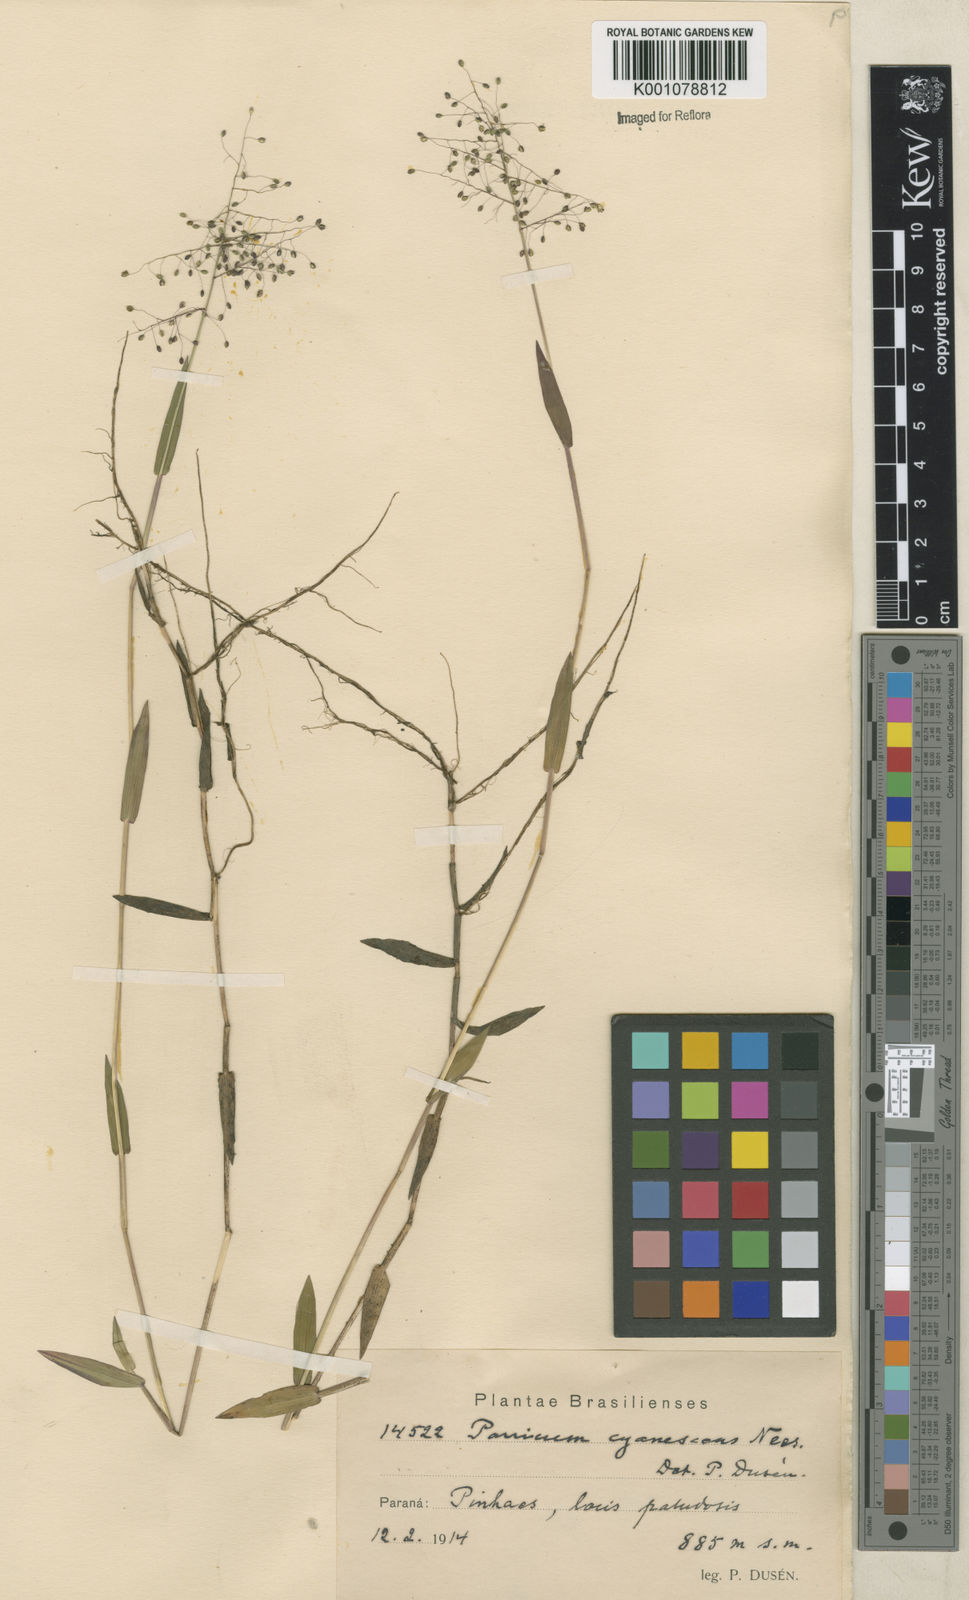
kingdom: Plantae
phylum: Tracheophyta
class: Liliopsida
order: Poales
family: Poaceae
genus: Trichanthecium
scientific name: Trichanthecium schwackeanum
